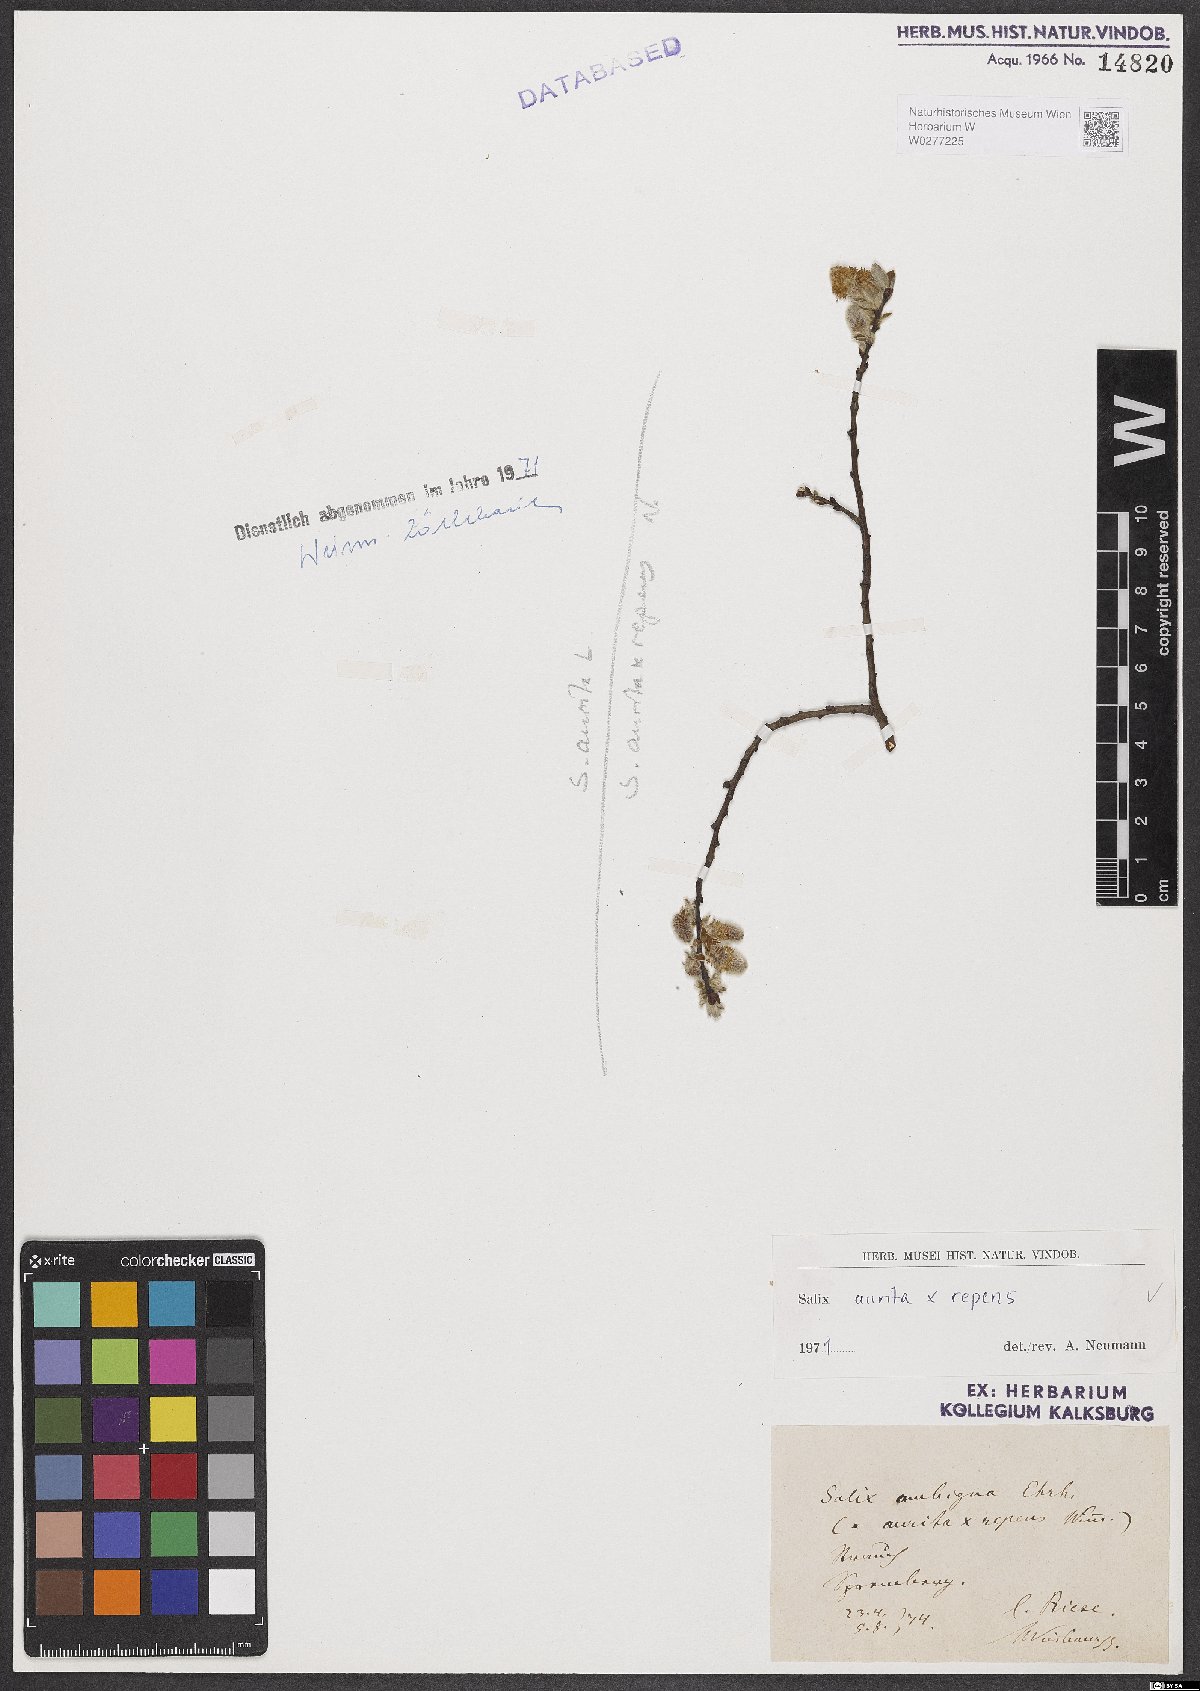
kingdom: Plantae
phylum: Tracheophyta
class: Magnoliopsida
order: Malpighiales
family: Salicaceae
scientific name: Salicaceae
